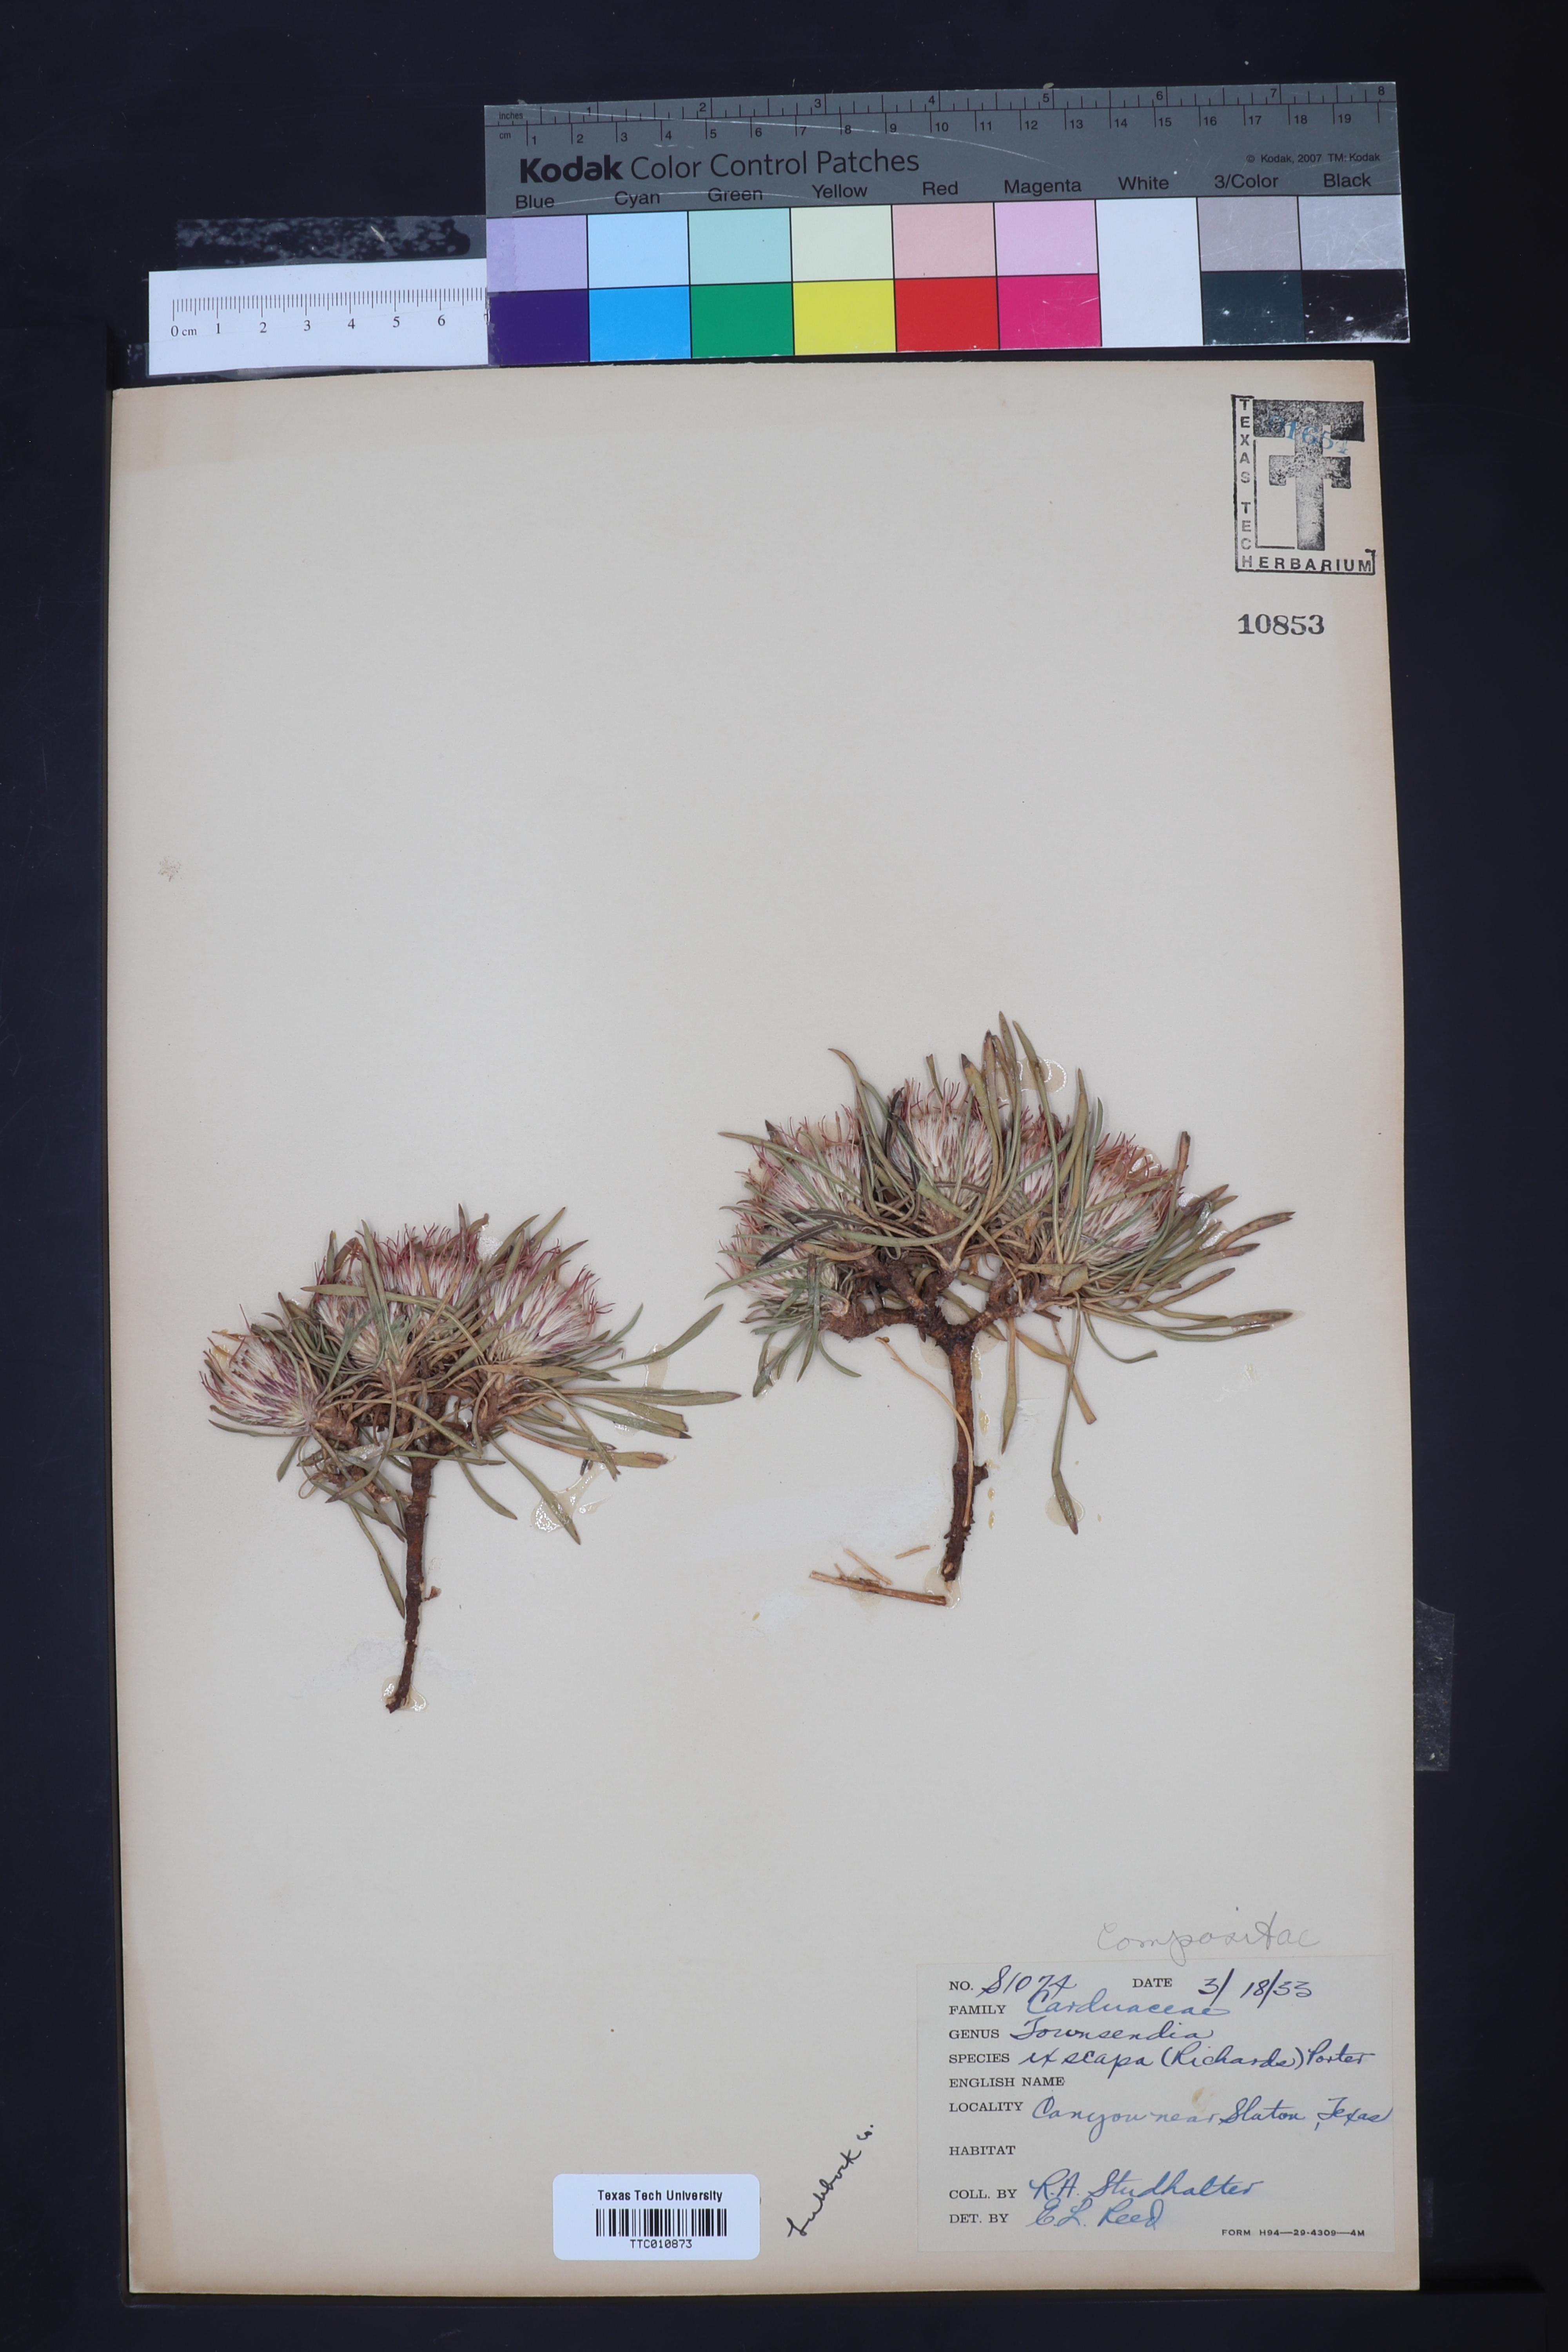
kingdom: Plantae
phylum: Tracheophyta
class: Magnoliopsida
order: Asterales
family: Asteraceae
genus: Townsendia
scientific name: Townsendia exscapa
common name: Dwarf townsendia
